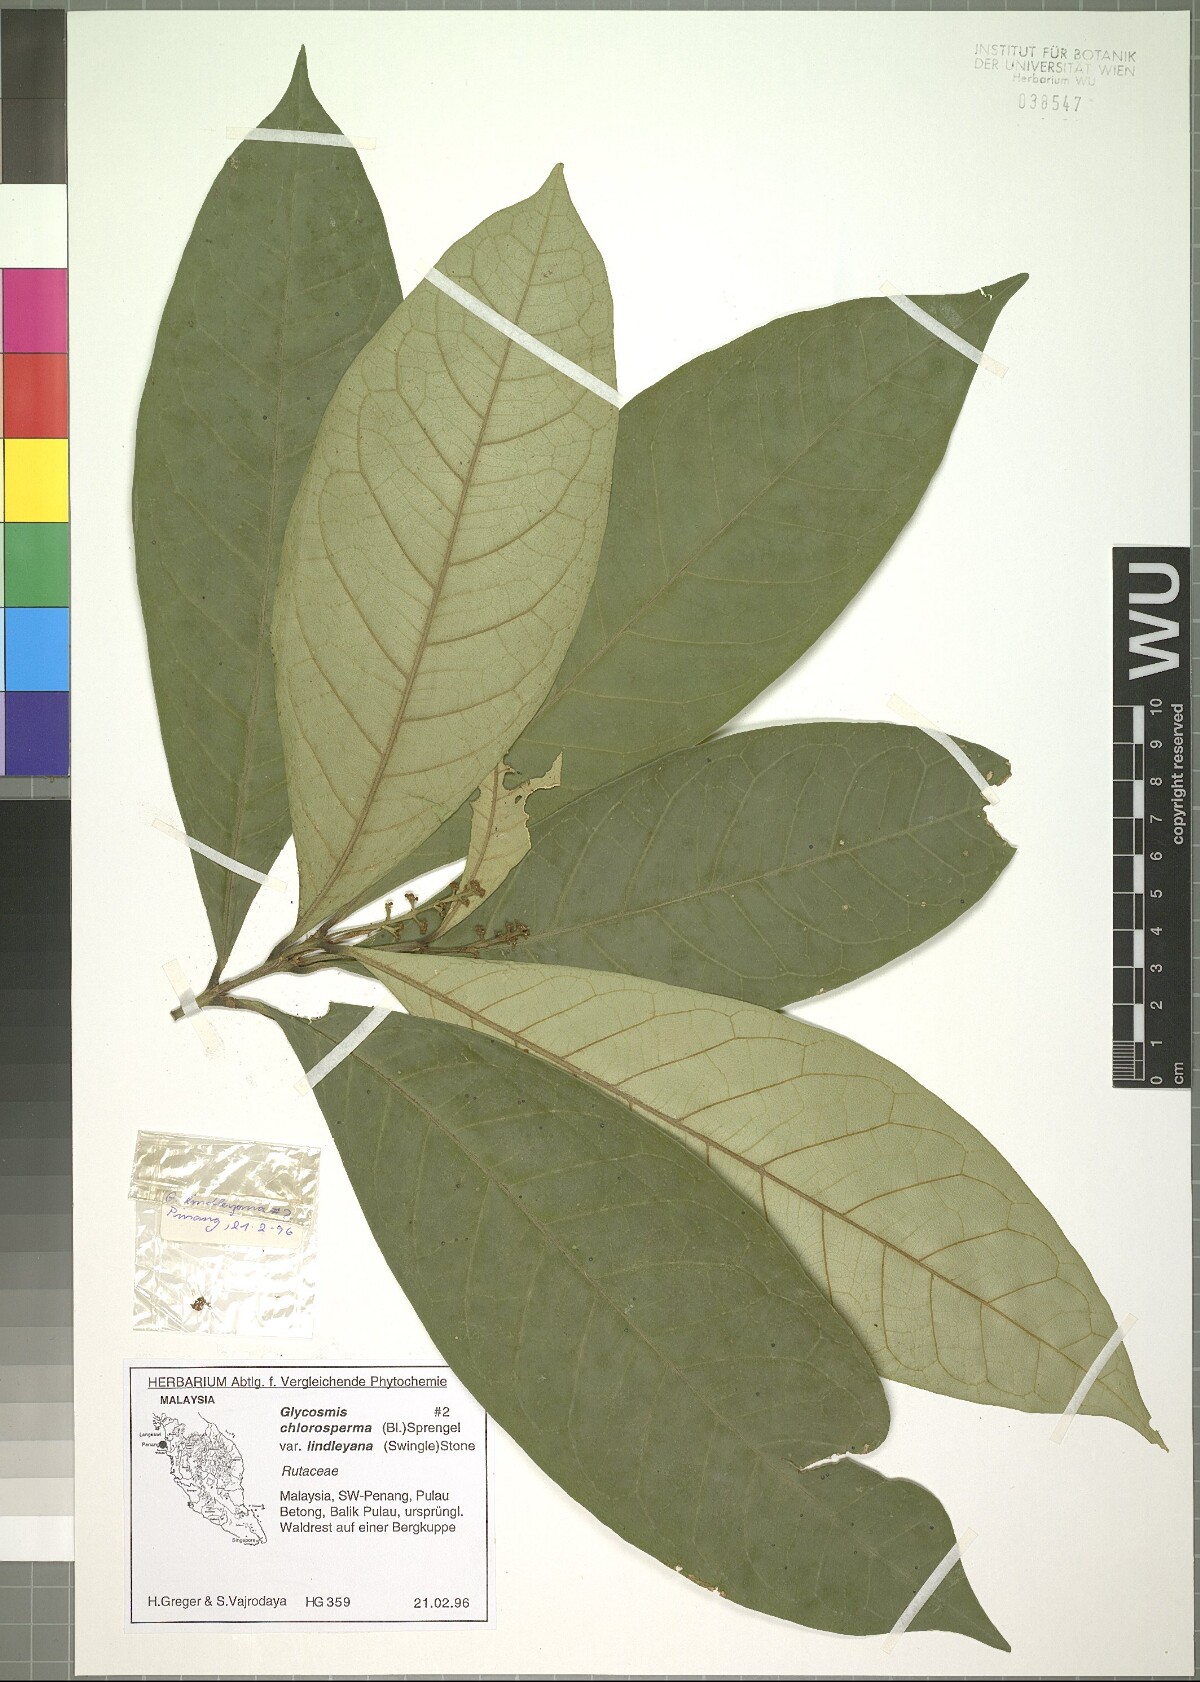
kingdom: Plantae
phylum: Tracheophyta
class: Magnoliopsida
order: Sapindales
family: Rutaceae
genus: Glycosmis
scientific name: Glycosmis chlorosperma
